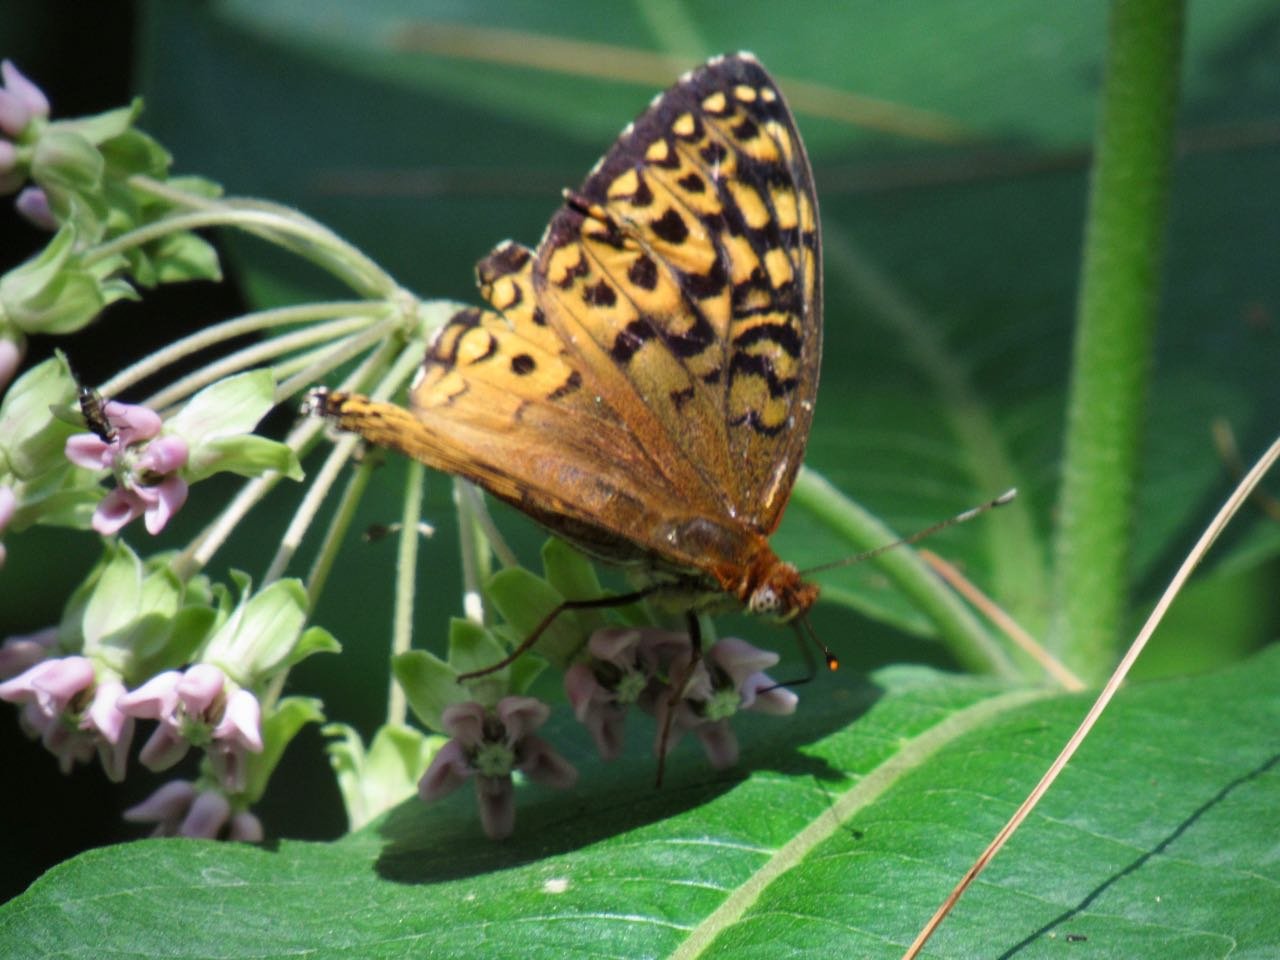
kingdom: Animalia
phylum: Arthropoda
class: Insecta
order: Lepidoptera
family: Nymphalidae
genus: Speyeria
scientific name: Speyeria atlantis
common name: Atlantis Fritillary
